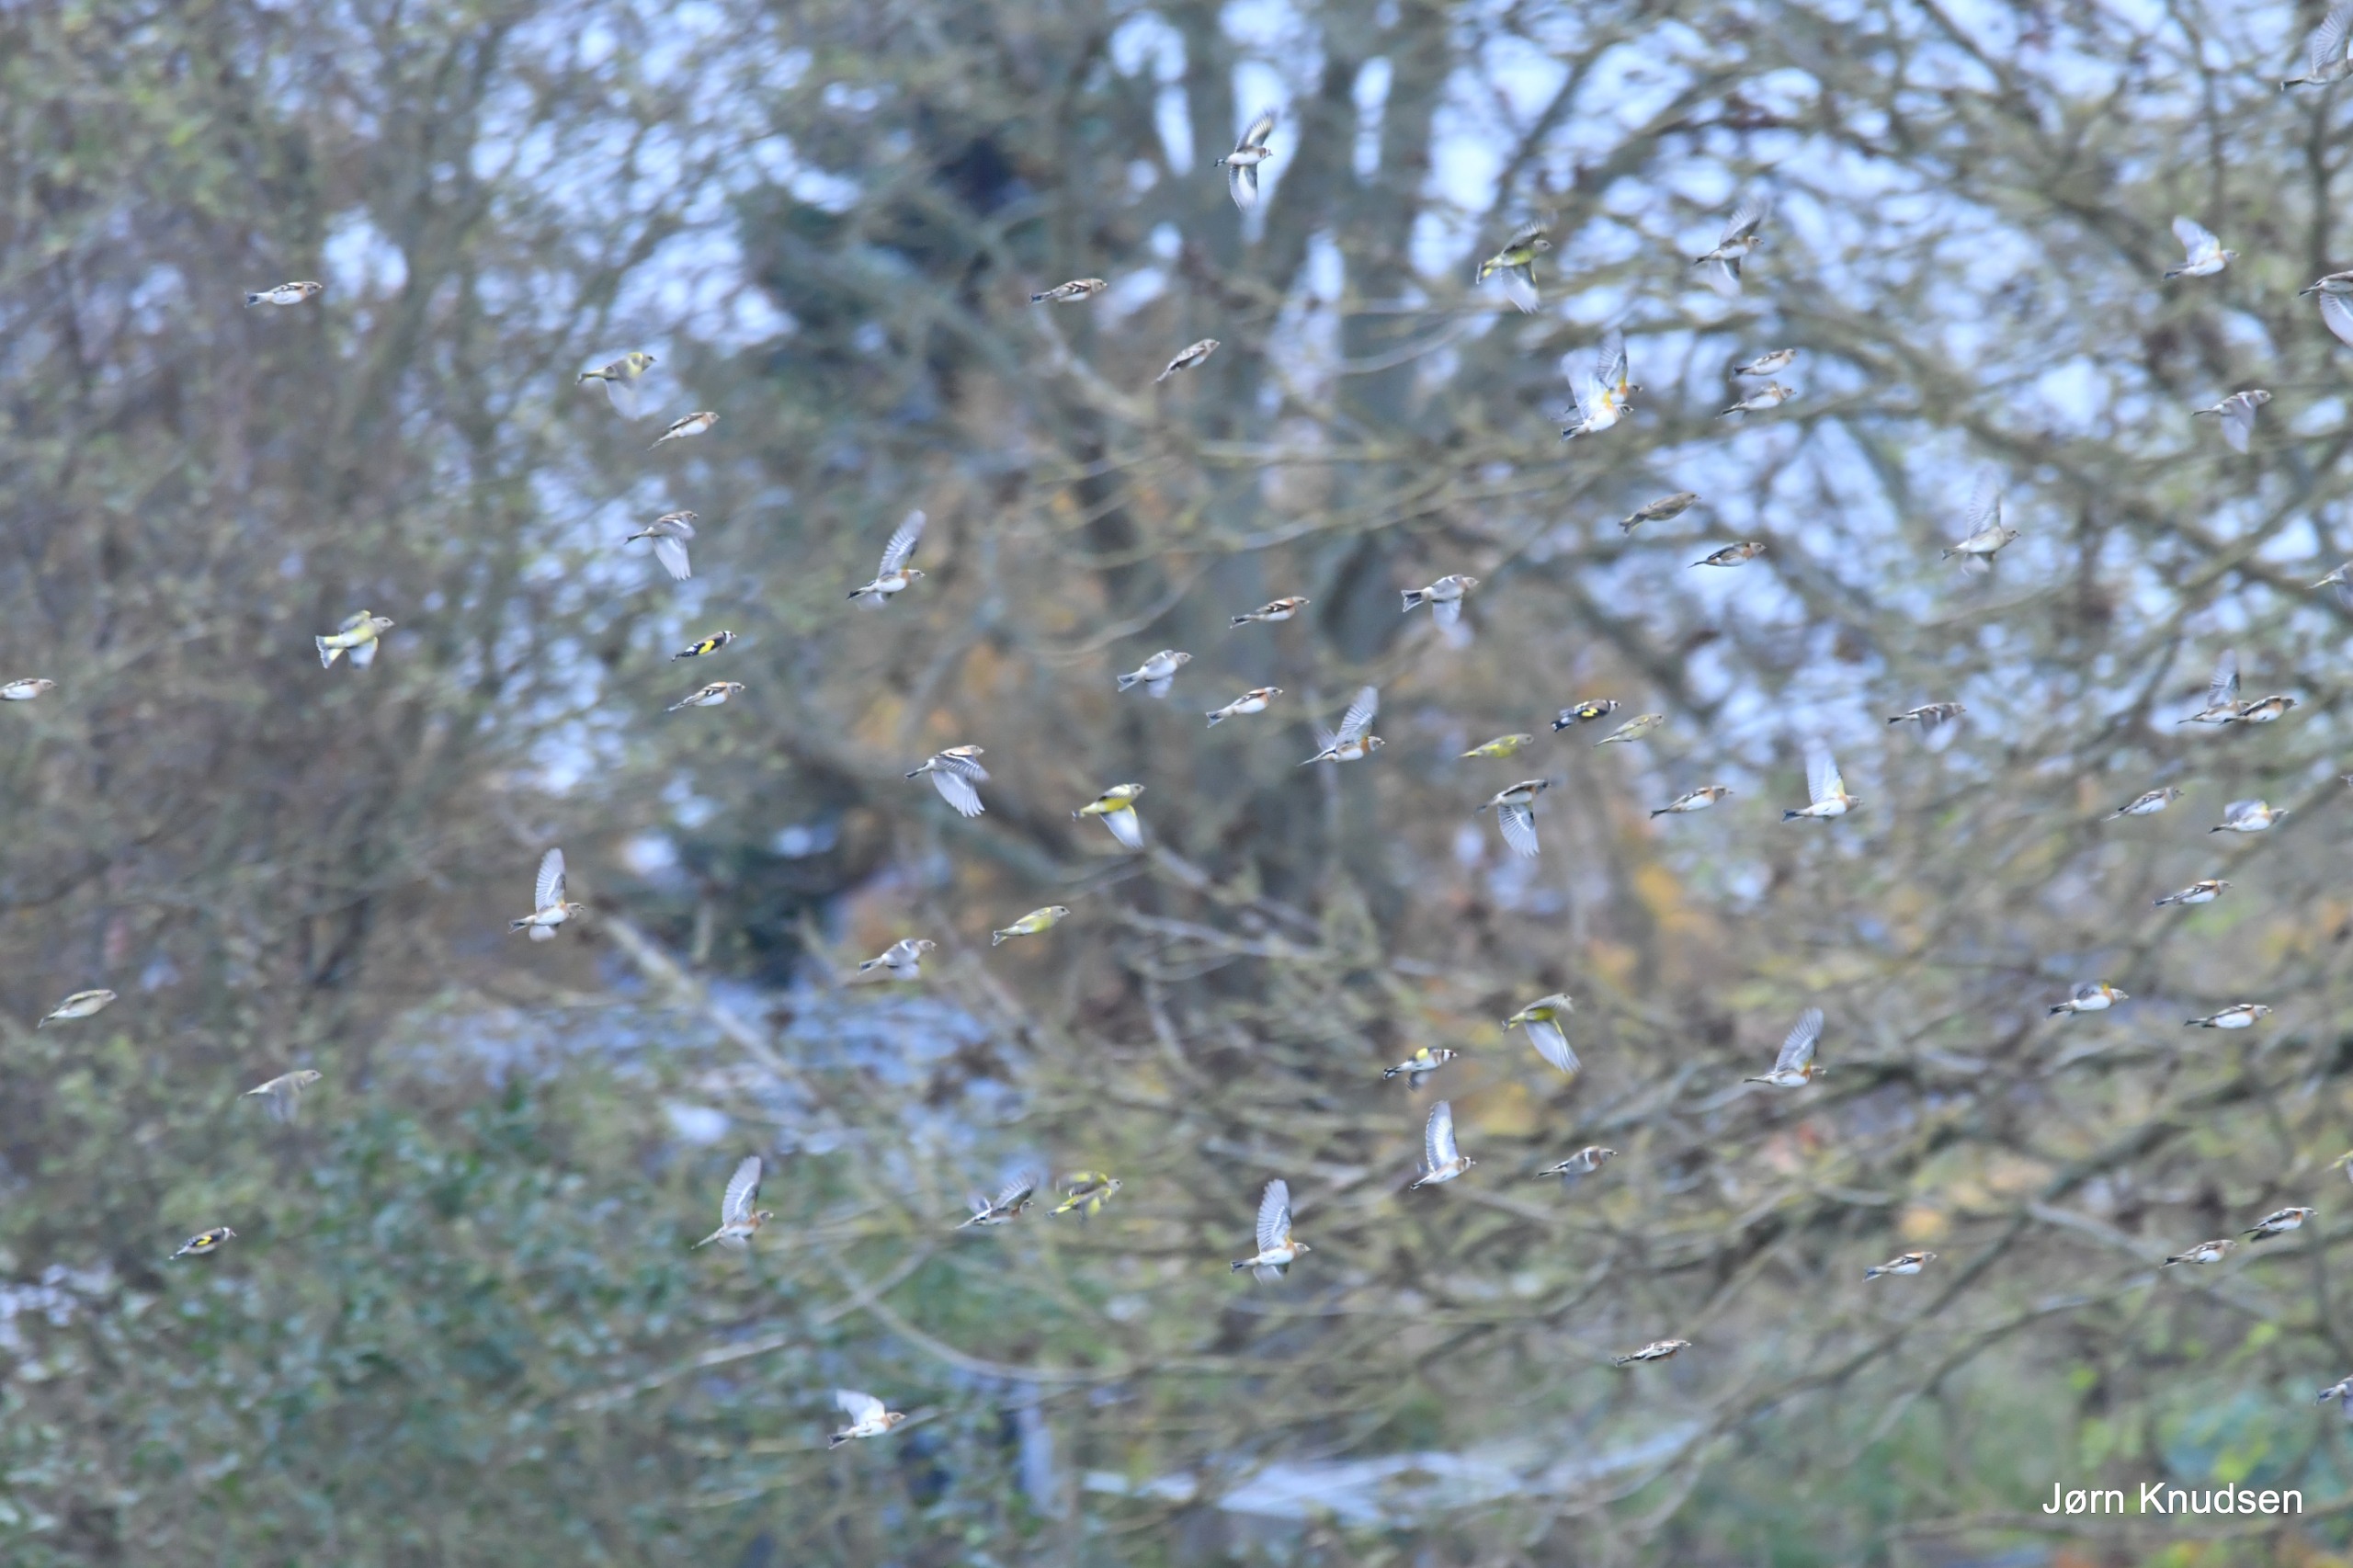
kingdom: Plantae
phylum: Tracheophyta
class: Liliopsida
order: Poales
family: Poaceae
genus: Chloris
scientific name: Chloris chloris
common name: Grønirisk
